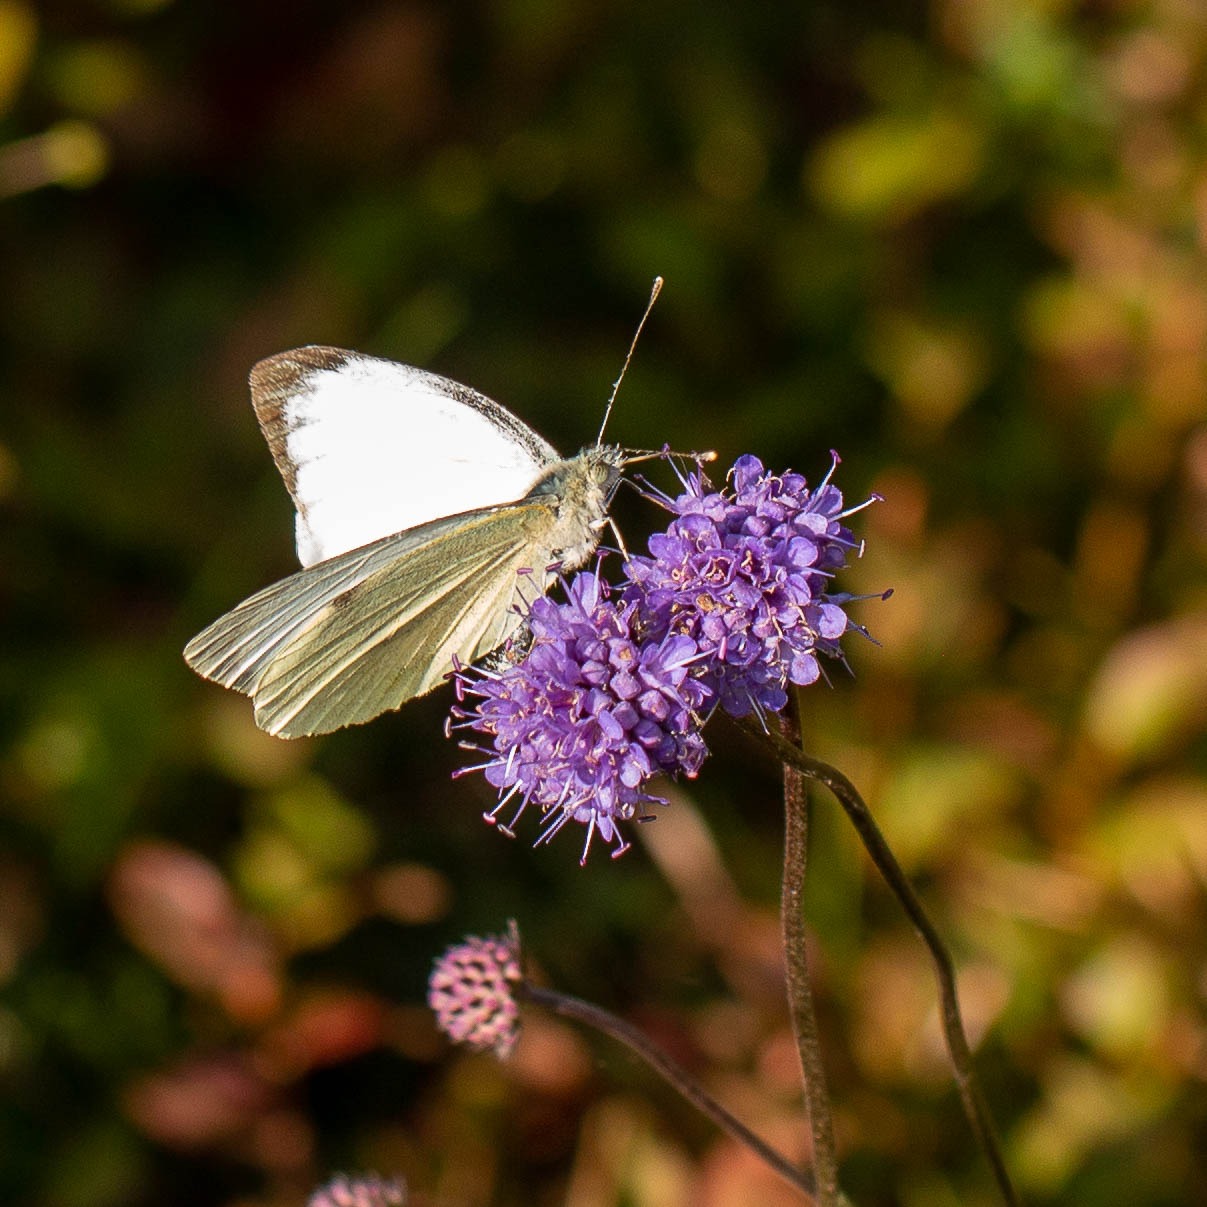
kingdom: Animalia
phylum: Arthropoda
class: Insecta
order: Lepidoptera
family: Pieridae
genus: Pieris
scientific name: Pieris brassicae
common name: Stor kålsommerfugl
